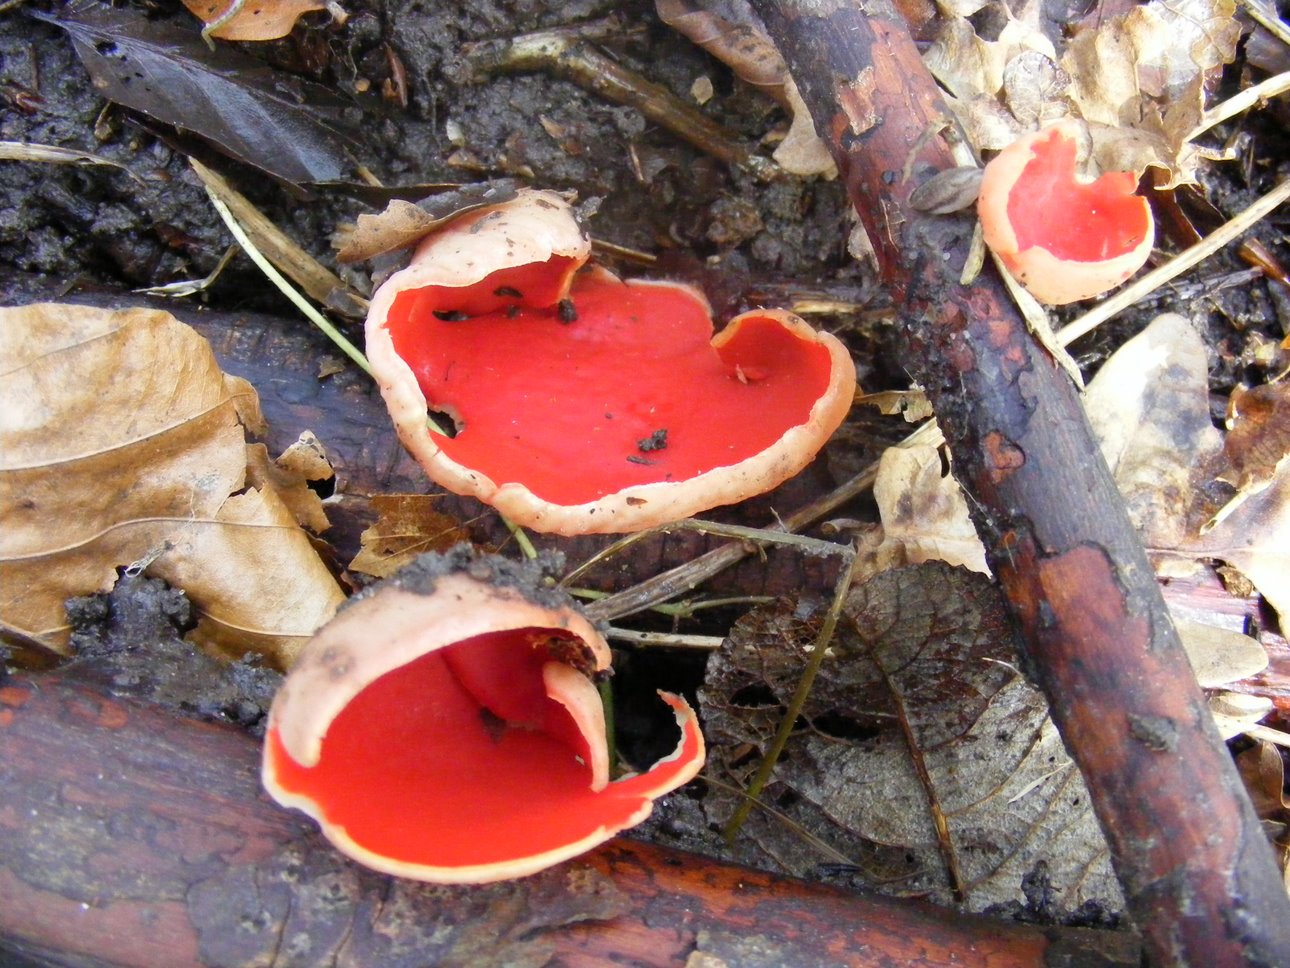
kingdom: Fungi
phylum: Ascomycota
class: Pezizomycetes
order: Pezizales
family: Sarcoscyphaceae
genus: Sarcoscypha
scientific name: Sarcoscypha austriaca
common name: krølhåret pragtbæger
